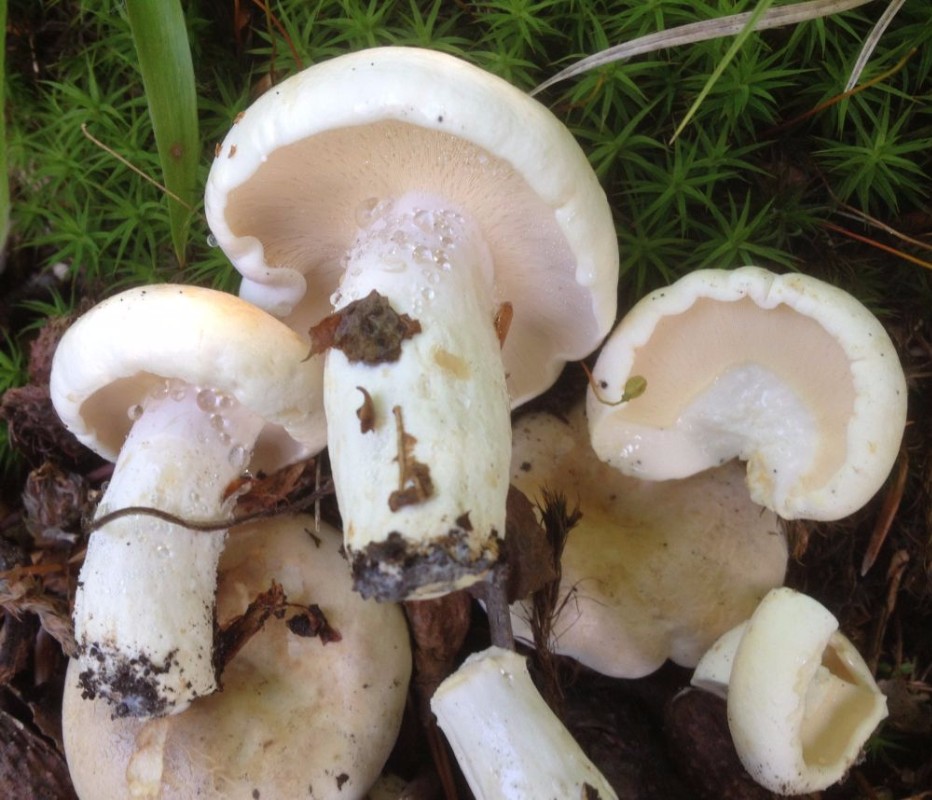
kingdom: Fungi
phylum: Basidiomycota
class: Agaricomycetes
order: Russulales
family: Russulaceae
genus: Lactifluus
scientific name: Lactifluus piperatus
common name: peber-mælkehat
